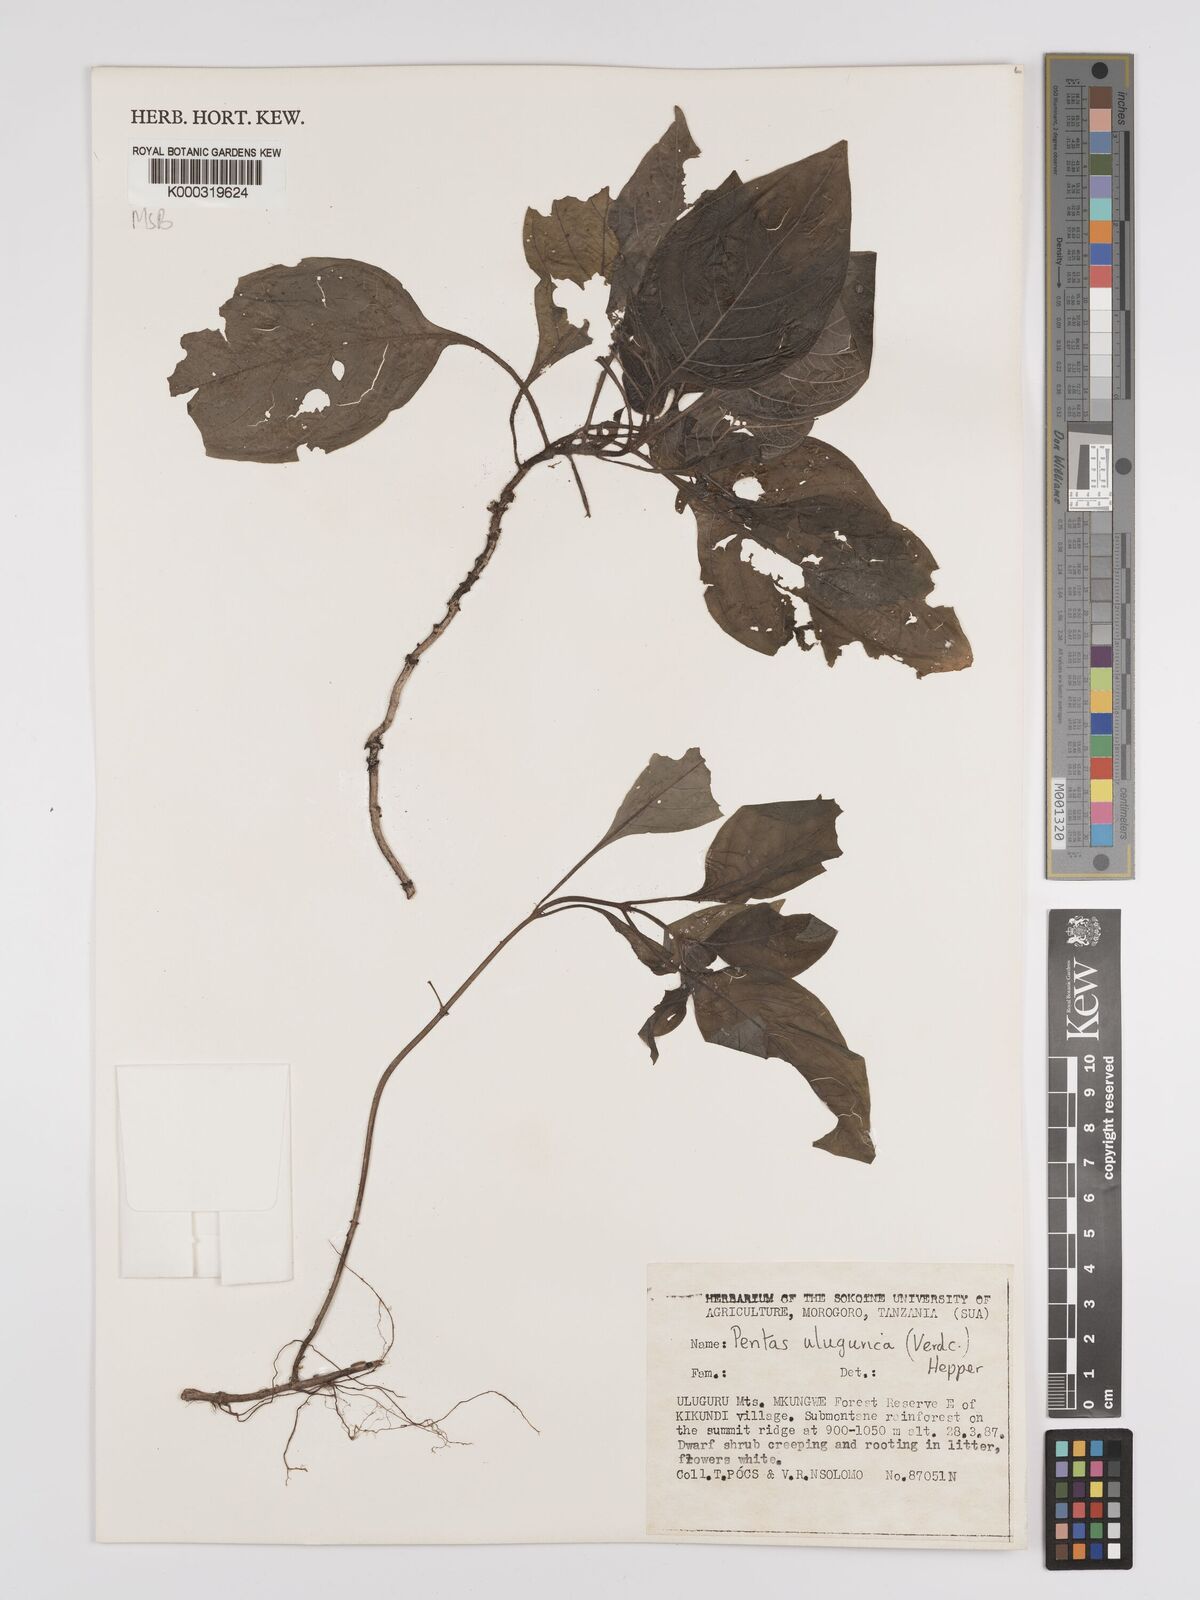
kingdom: Plantae
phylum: Tracheophyta
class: Magnoliopsida
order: Gentianales
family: Rubiaceae
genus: Phyllopentas
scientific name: Phyllopentas ulugurica
